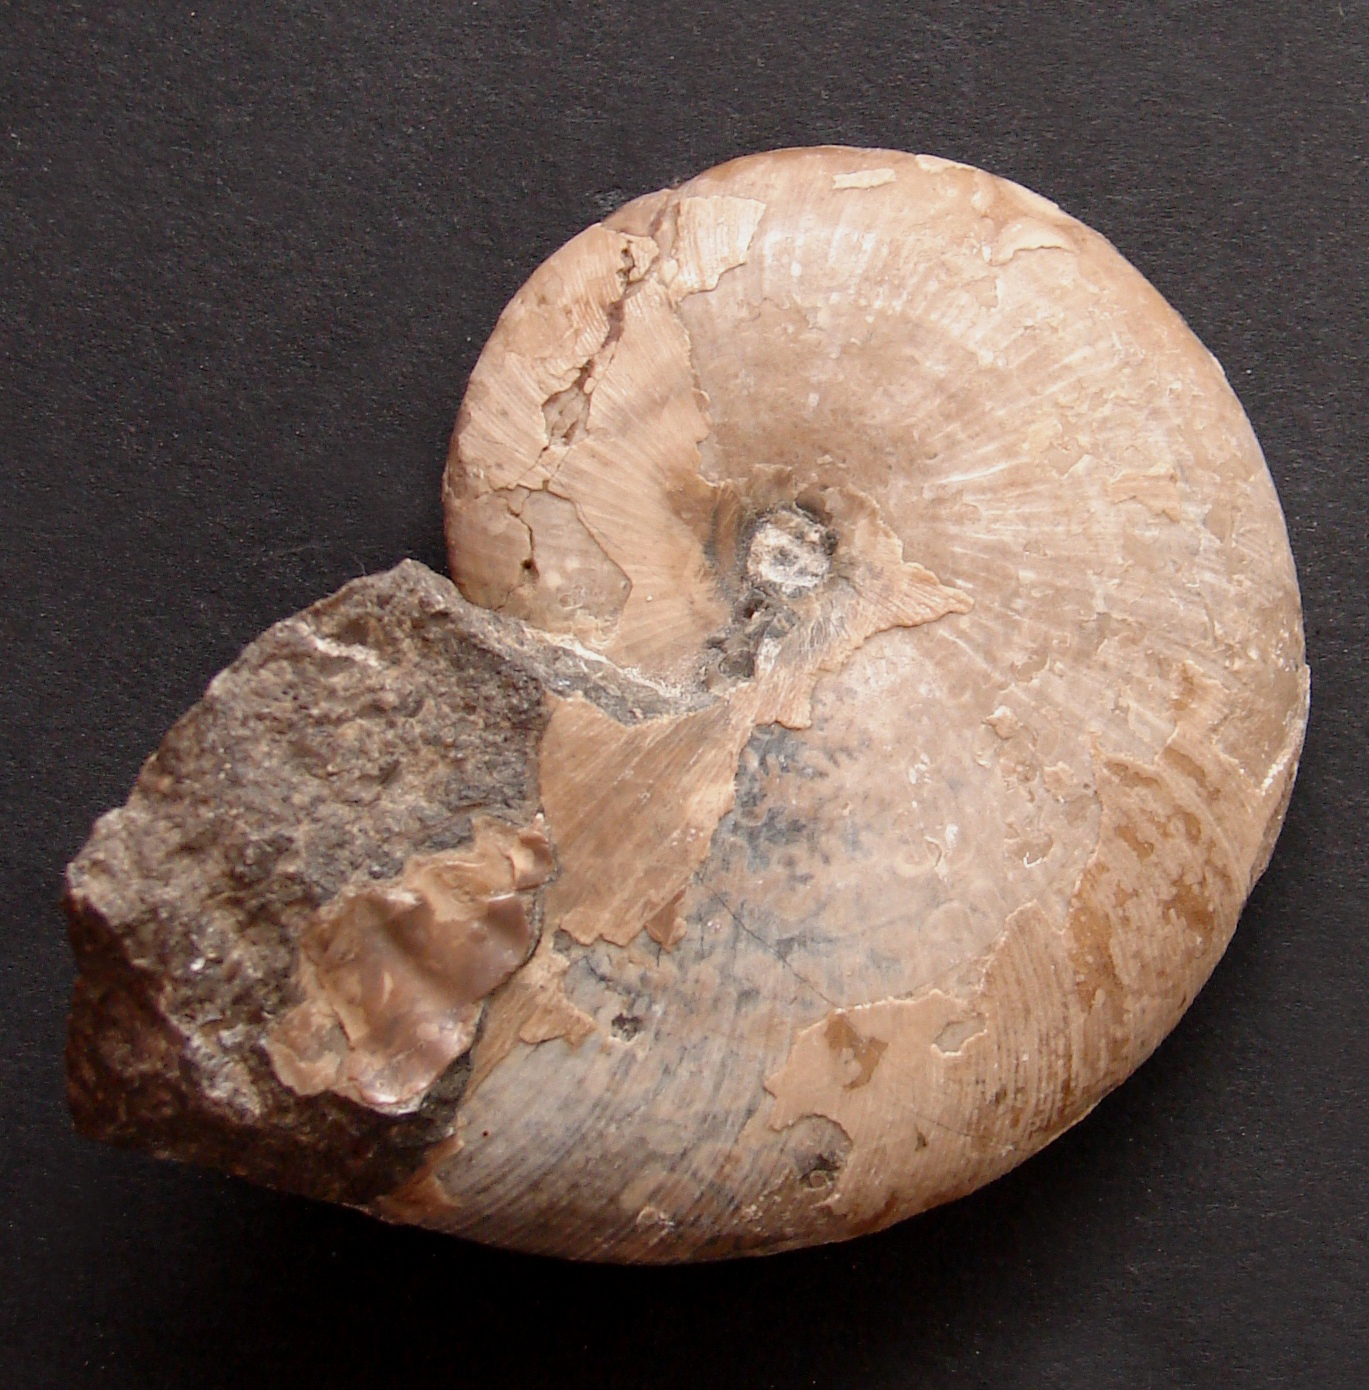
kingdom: Animalia
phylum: Mollusca
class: Cephalopoda
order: Phylloceratida
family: Phylloceratidae
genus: Phylloceras
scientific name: Phylloceras heterophyllum
